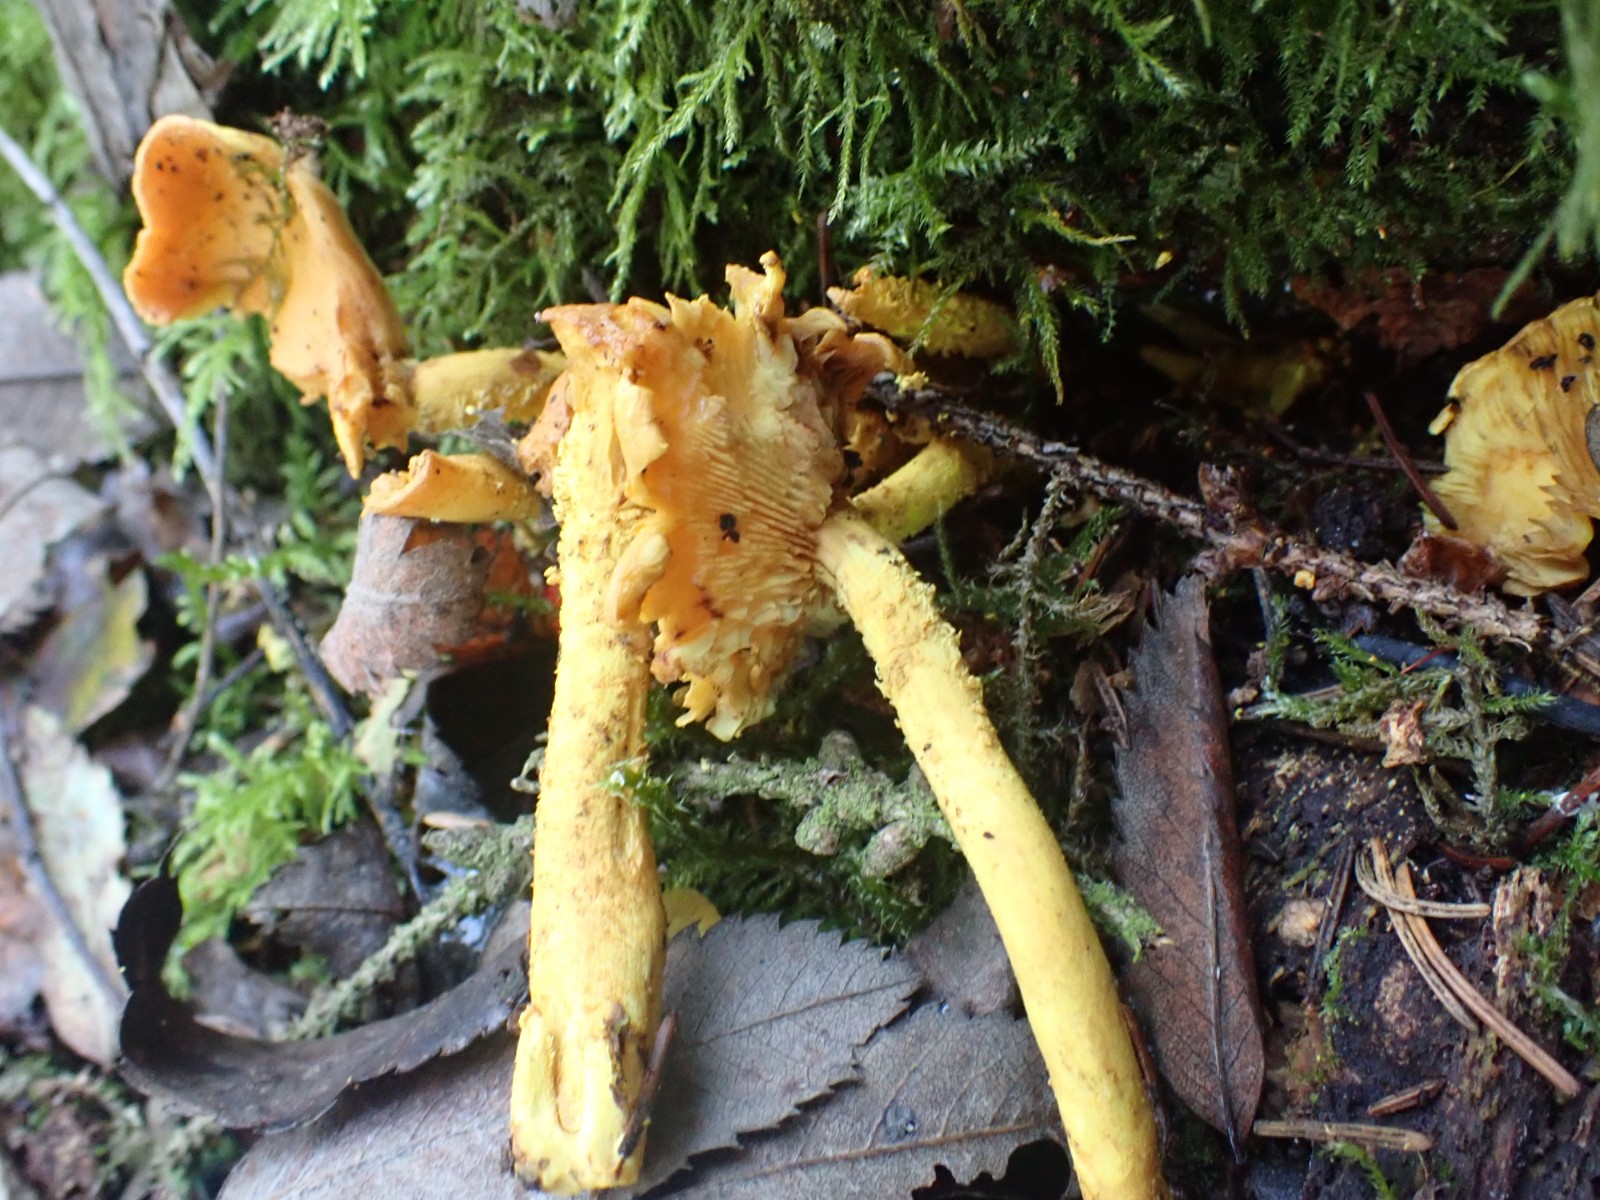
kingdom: Fungi
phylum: Basidiomycota
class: Agaricomycetes
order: Agaricales
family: Strophariaceae
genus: Pholiota
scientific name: Pholiota flammans
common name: flamme-skælhat
